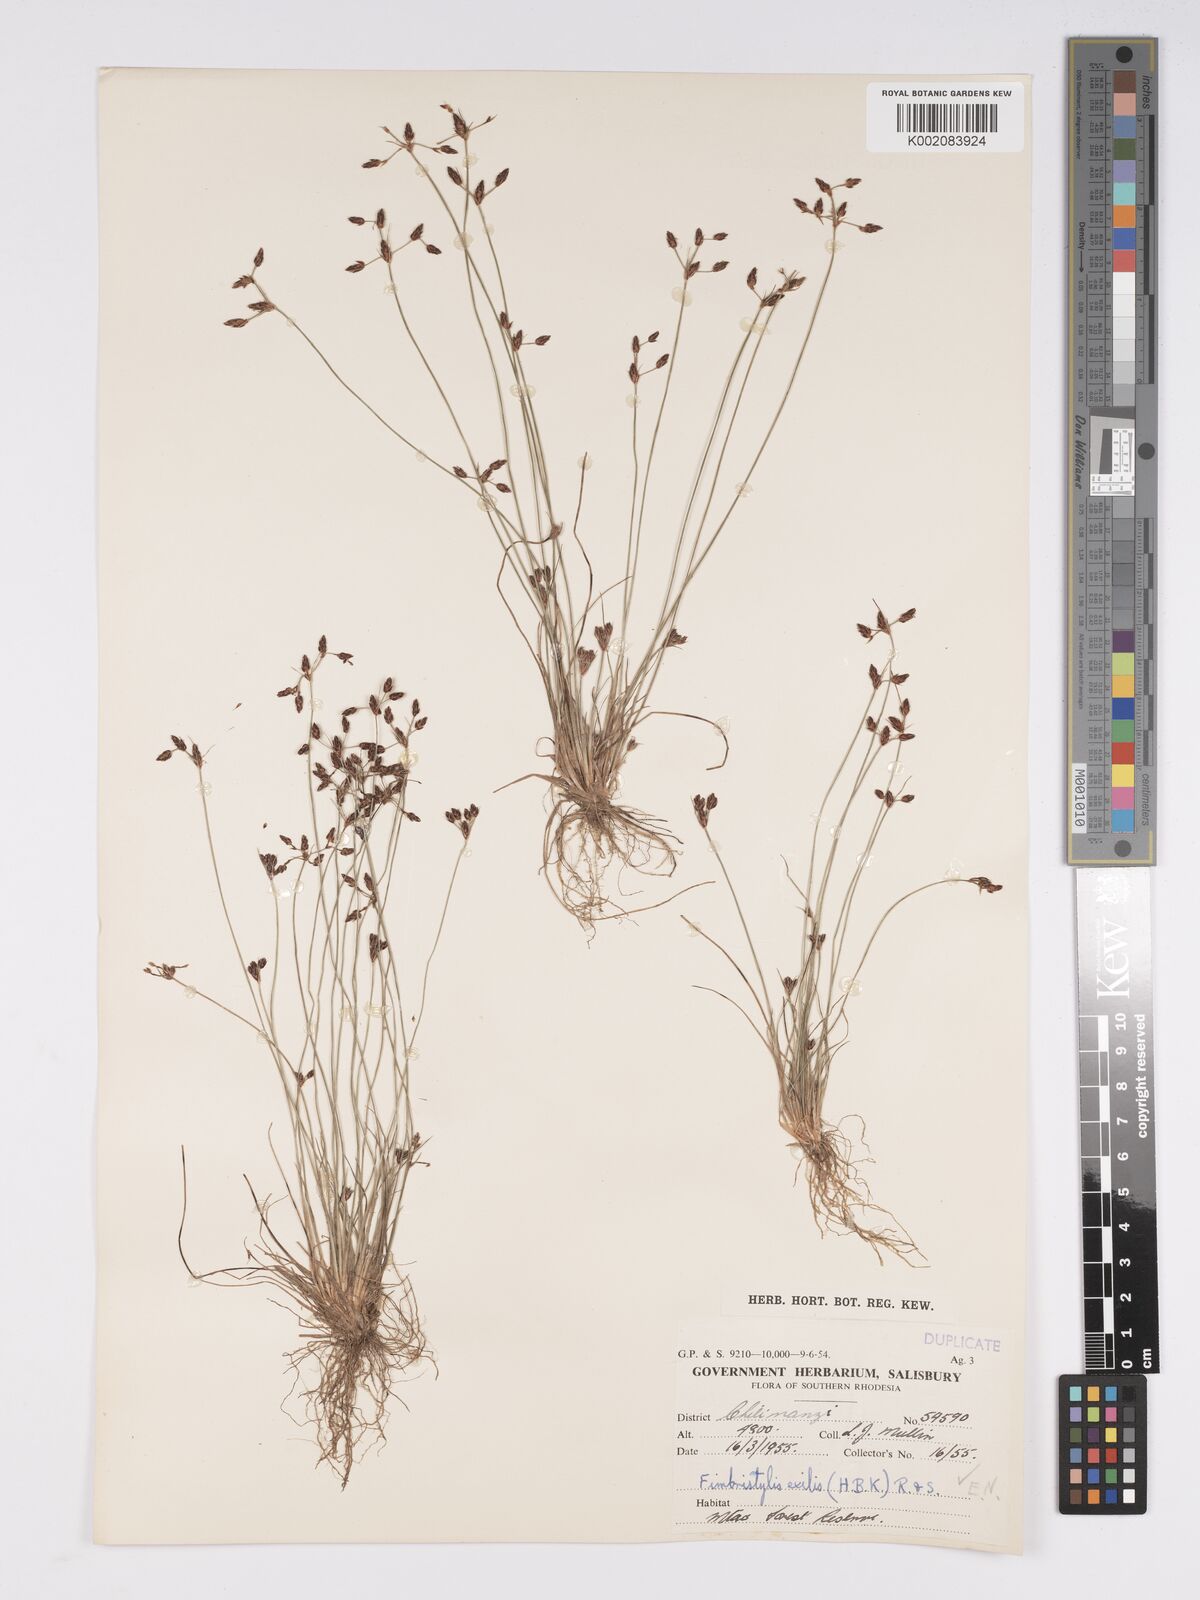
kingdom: Plantae
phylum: Tracheophyta
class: Liliopsida
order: Poales
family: Cyperaceae
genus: Bulbostylis
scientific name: Bulbostylis hispidula
